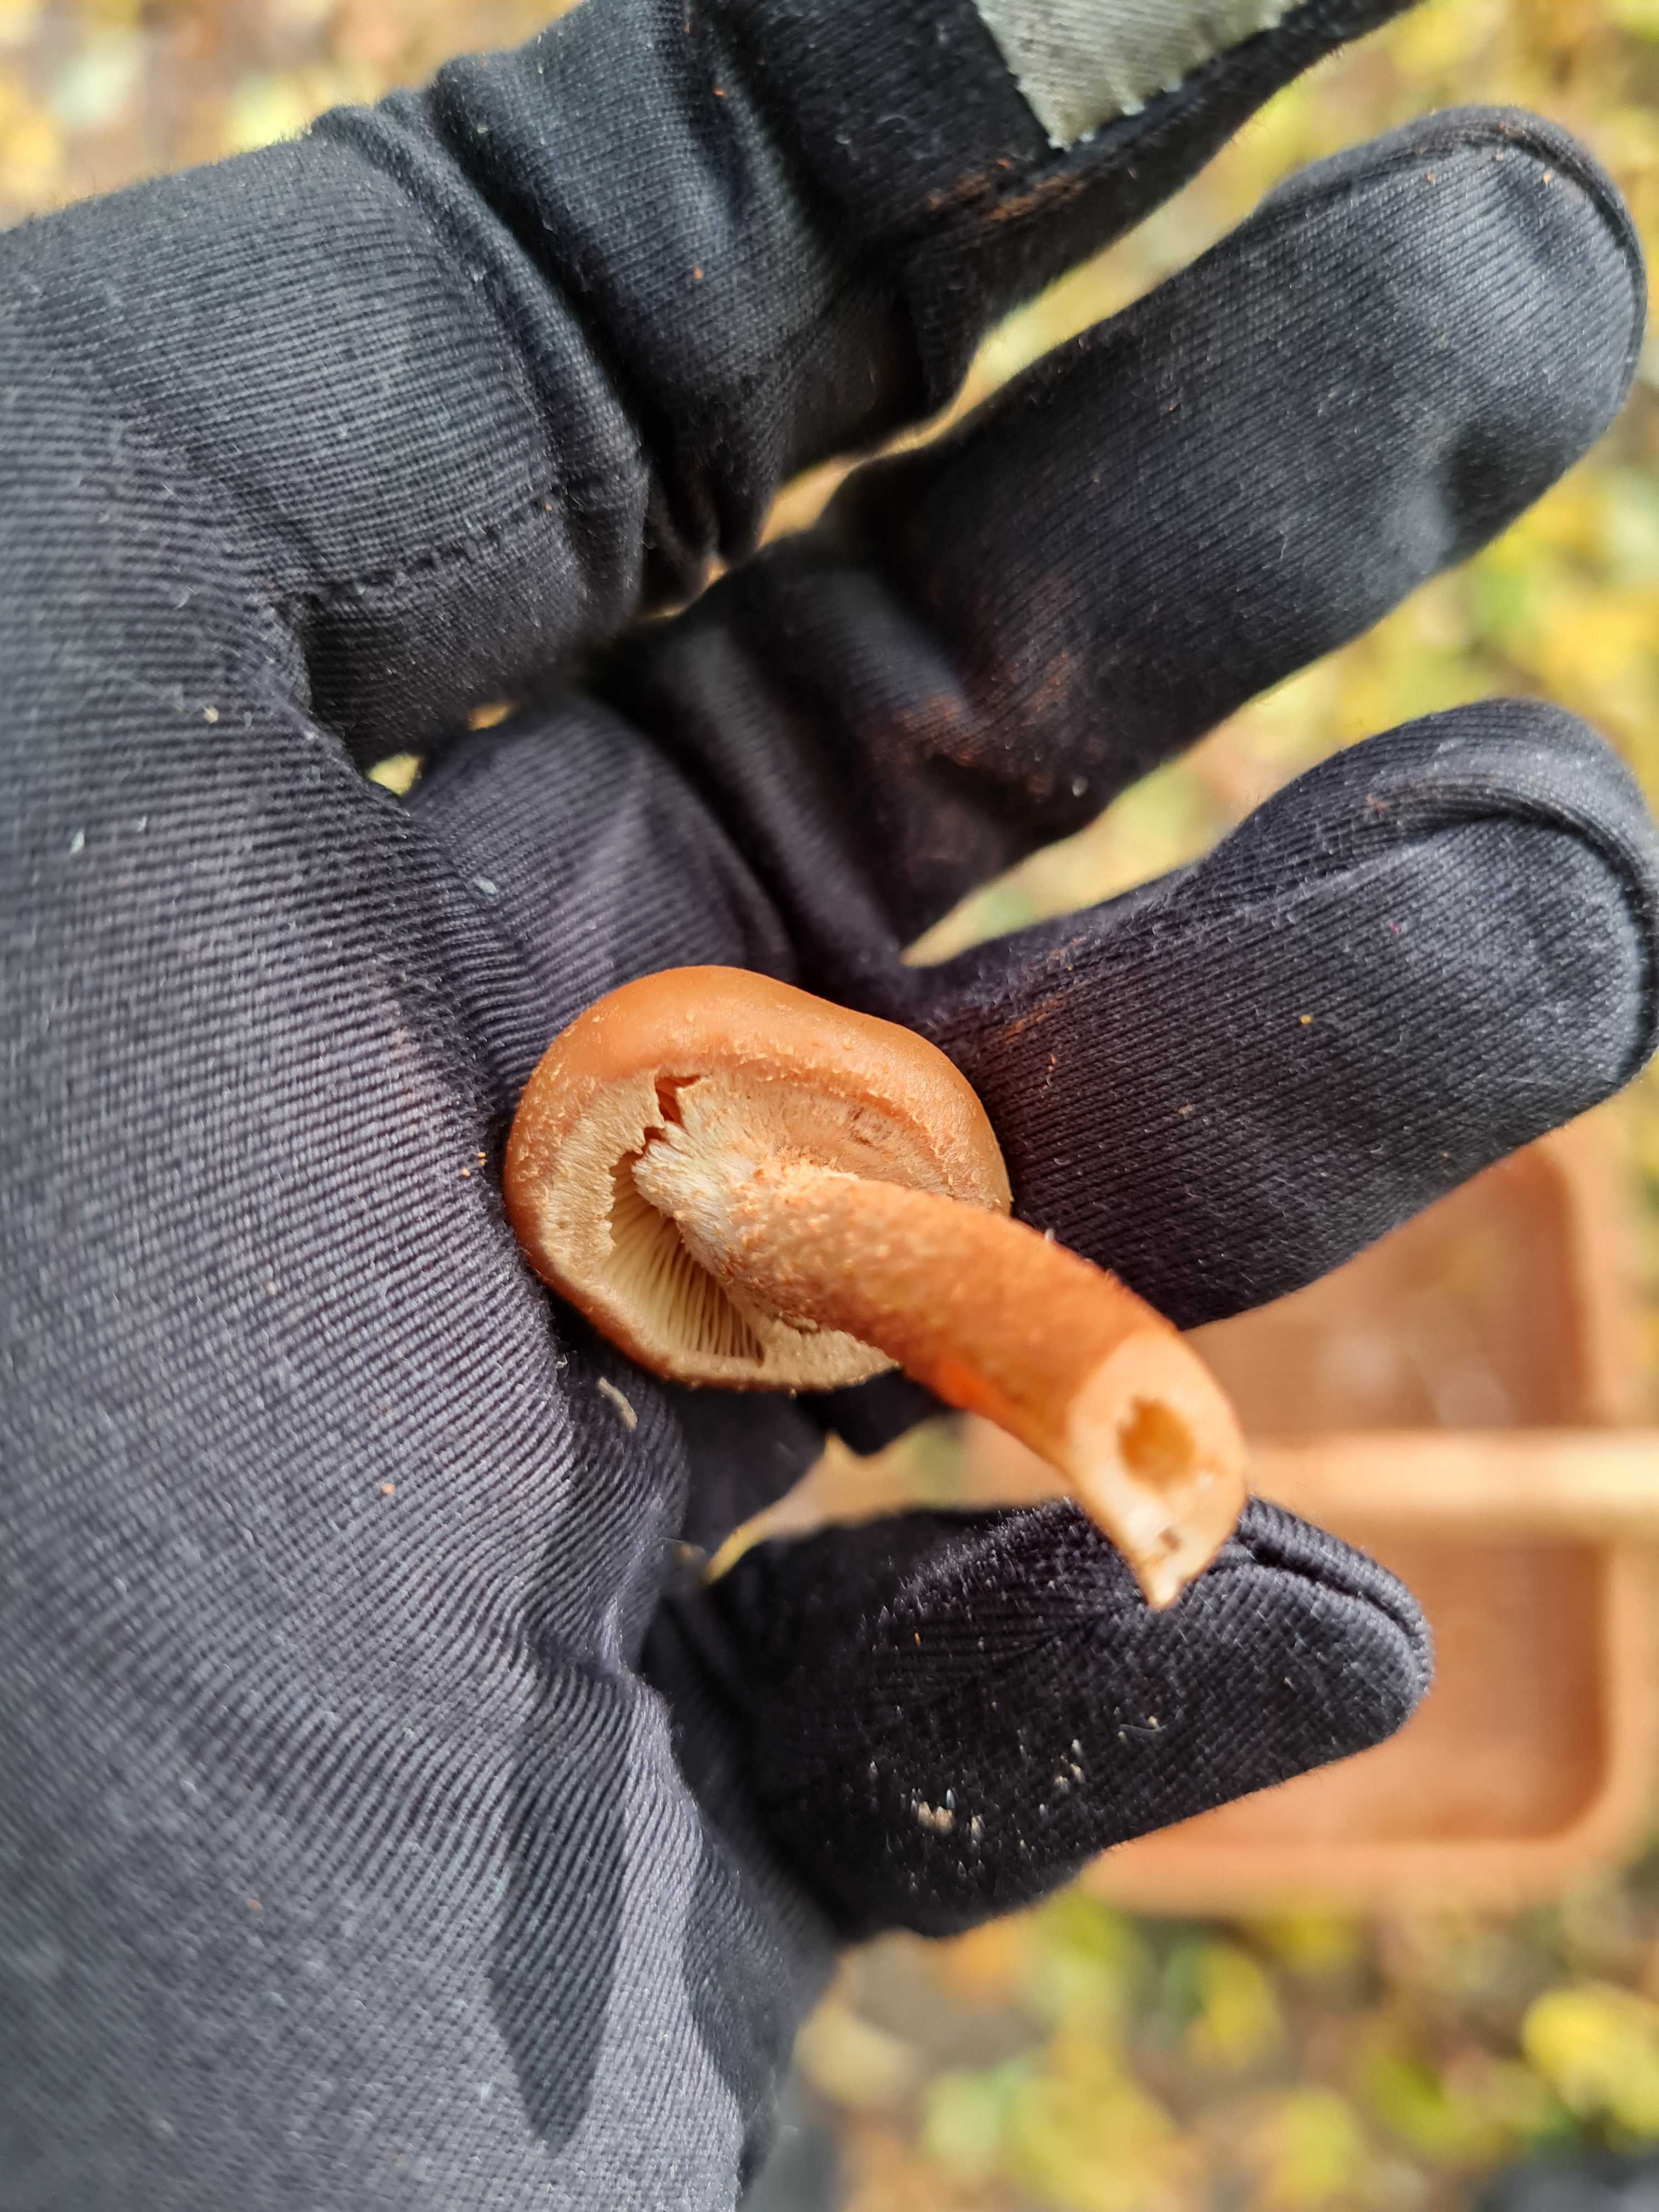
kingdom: Fungi
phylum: Basidiomycota
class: Agaricomycetes
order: Agaricales
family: Strophariaceae
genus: Kuehneromyces
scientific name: Kuehneromyces mutabilis
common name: foranderlig skælhat
